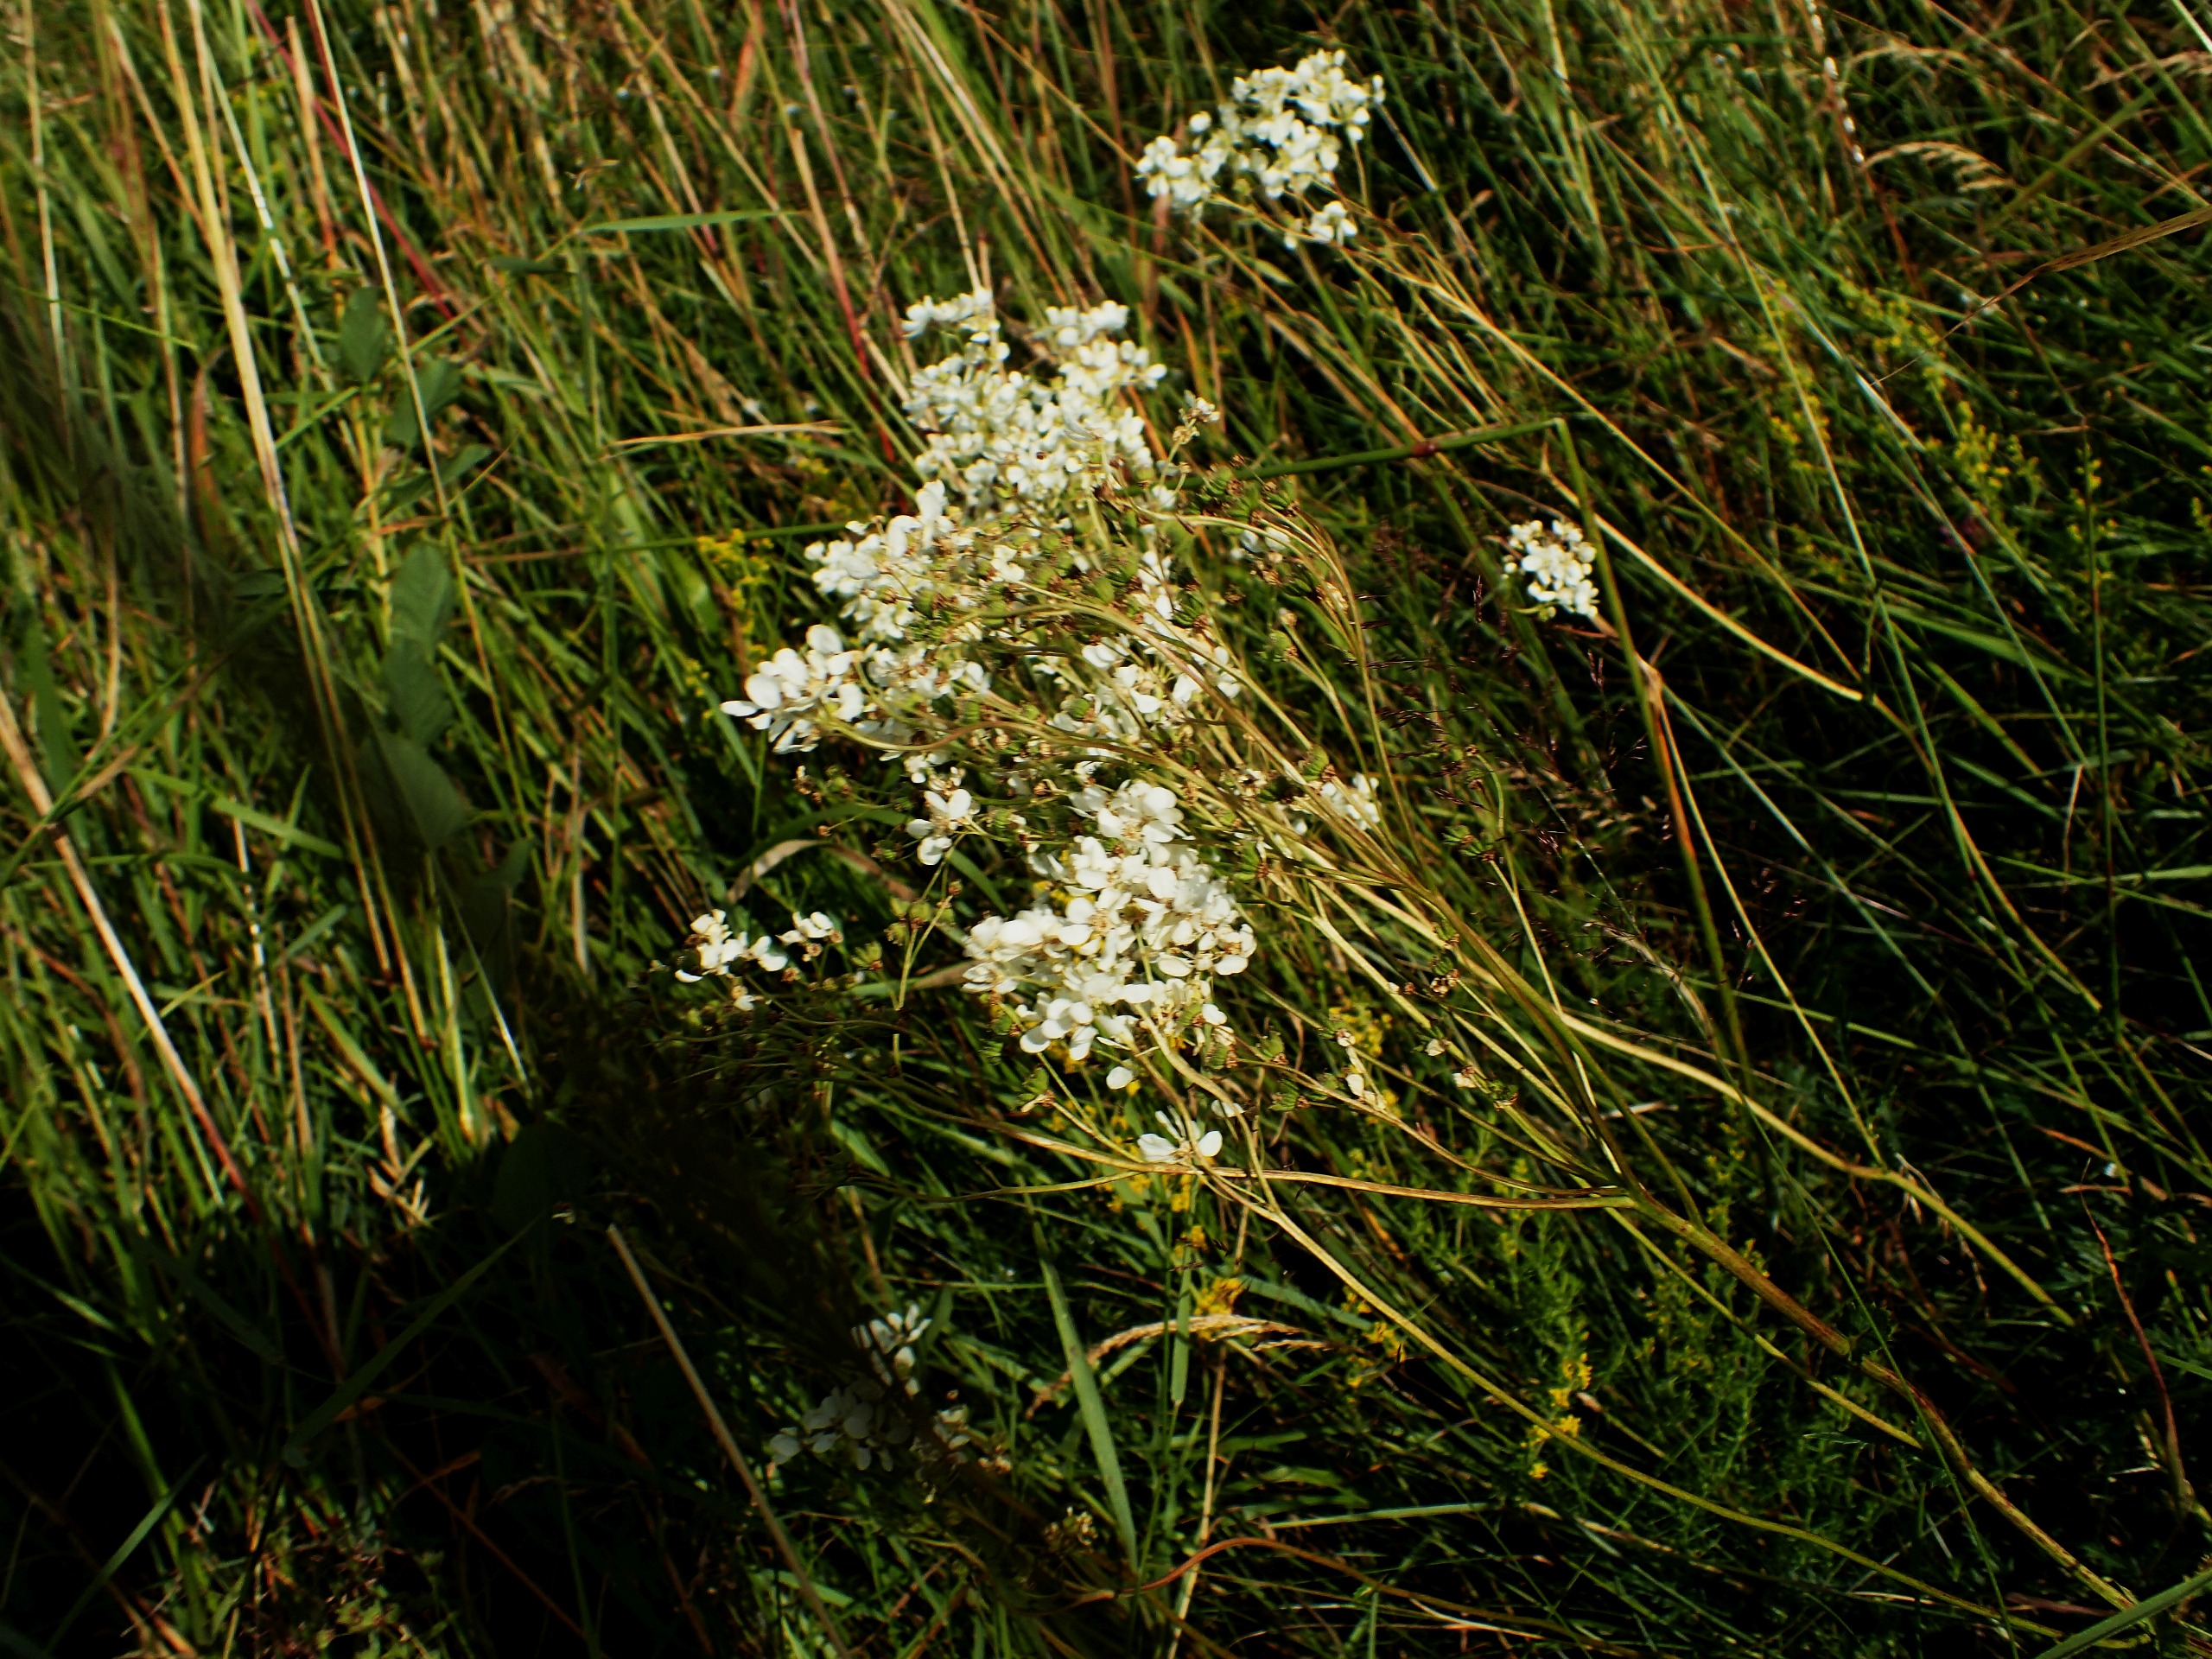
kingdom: Plantae
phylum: Tracheophyta
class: Magnoliopsida
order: Rosales
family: Rosaceae
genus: Filipendula
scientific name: Filipendula vulgaris
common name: Knoldet mjødurt
